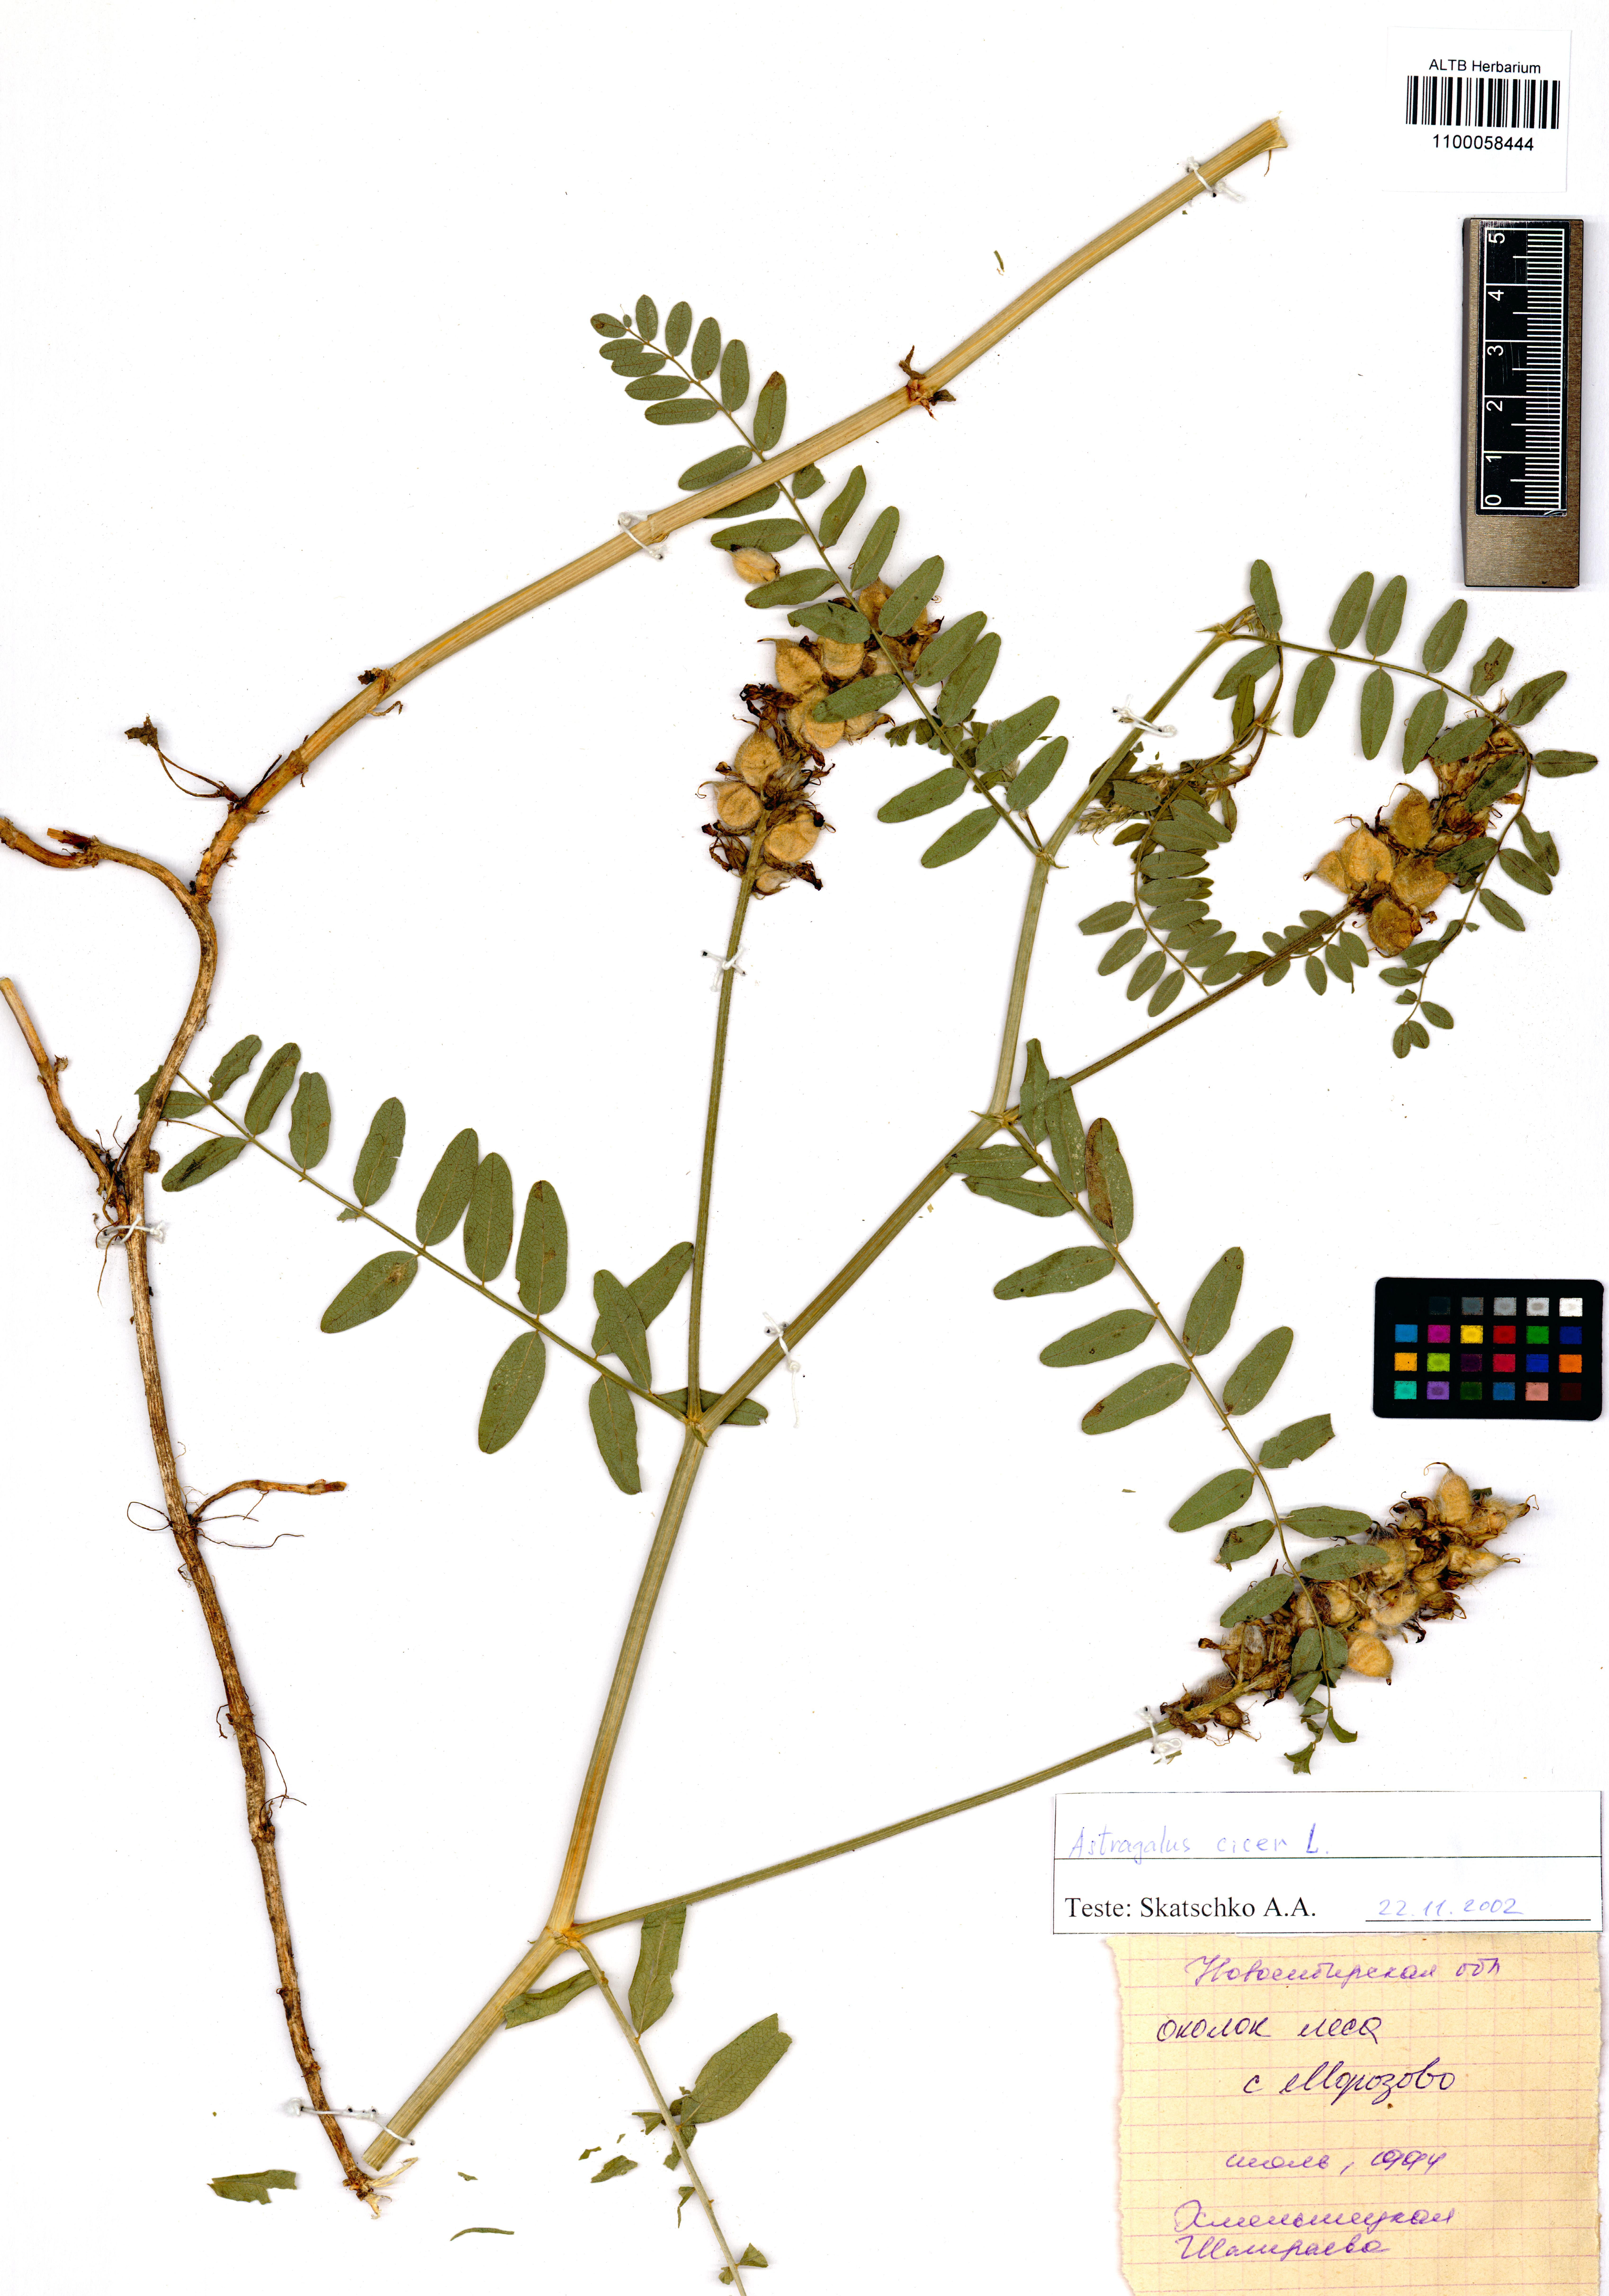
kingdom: Plantae
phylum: Tracheophyta
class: Magnoliopsida
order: Fabales
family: Fabaceae
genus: Astragalus
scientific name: Astragalus cicer
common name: Chick-pea milk-vetch
